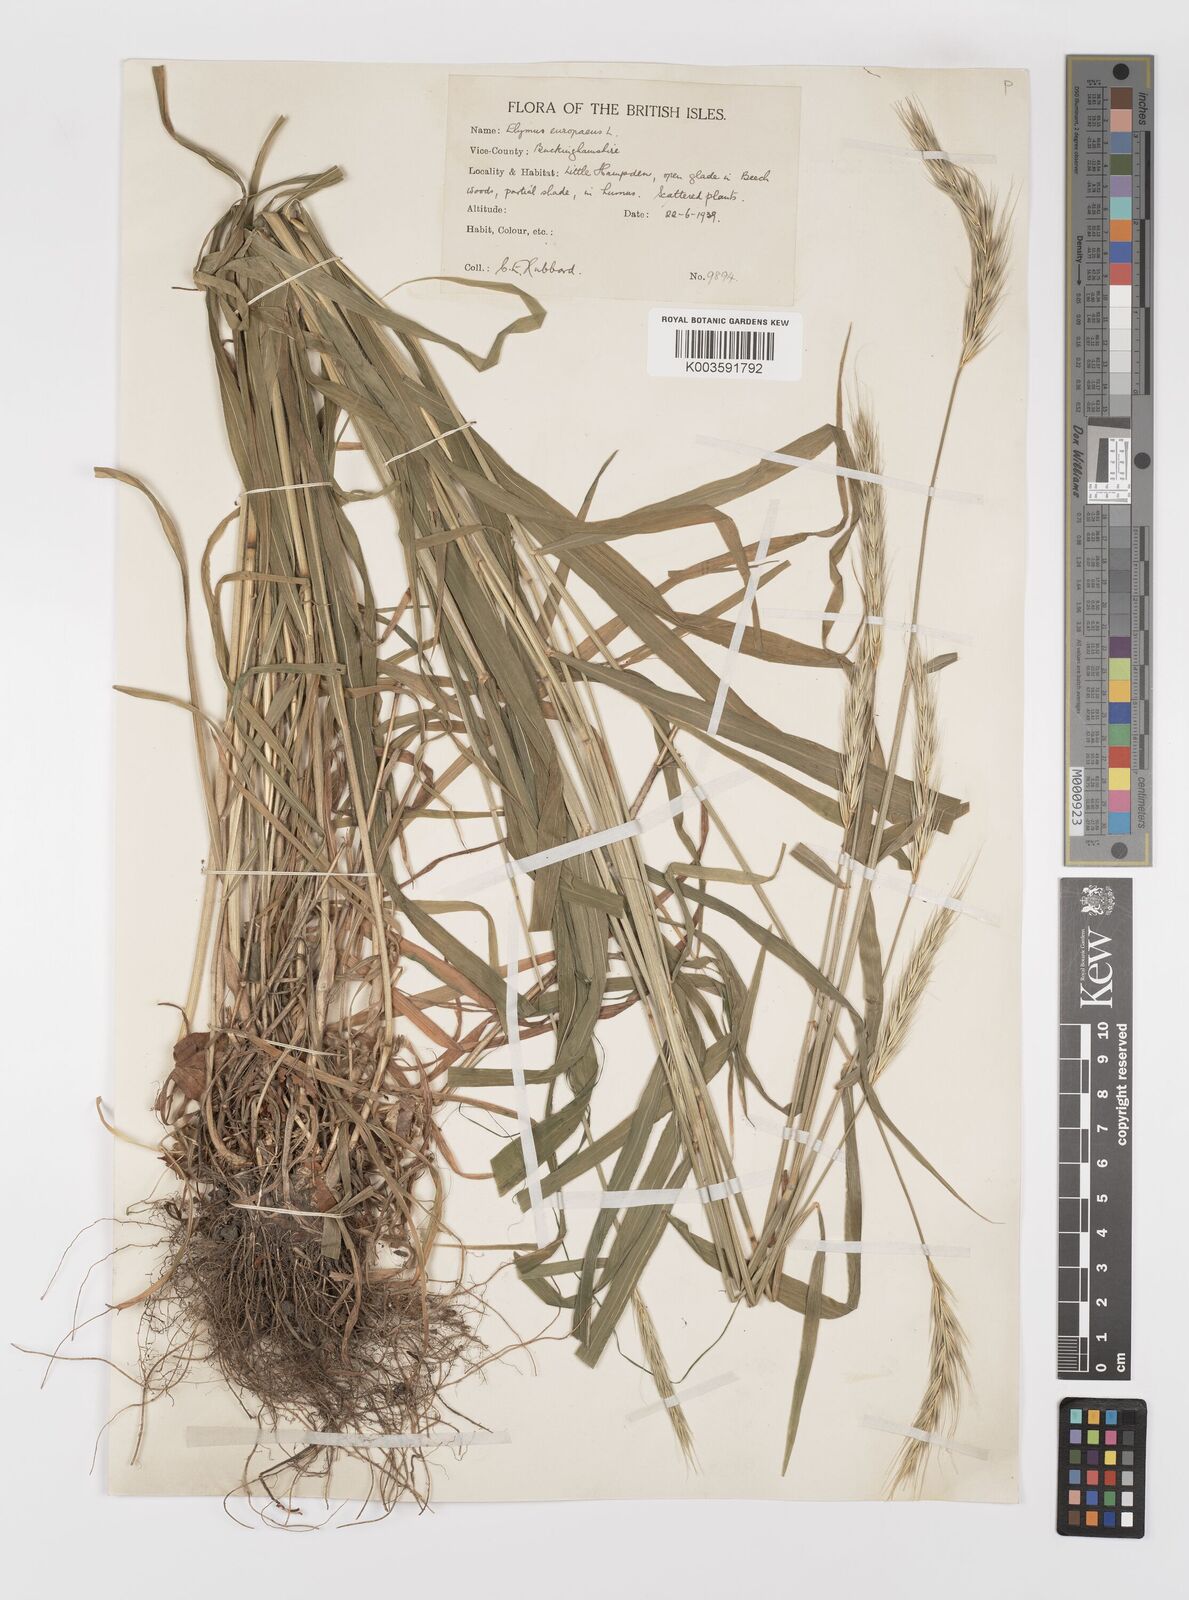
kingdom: Plantae
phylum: Tracheophyta
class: Liliopsida
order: Poales
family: Poaceae
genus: Hordelymus
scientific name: Hordelymus europaeus
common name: Wood-barley
